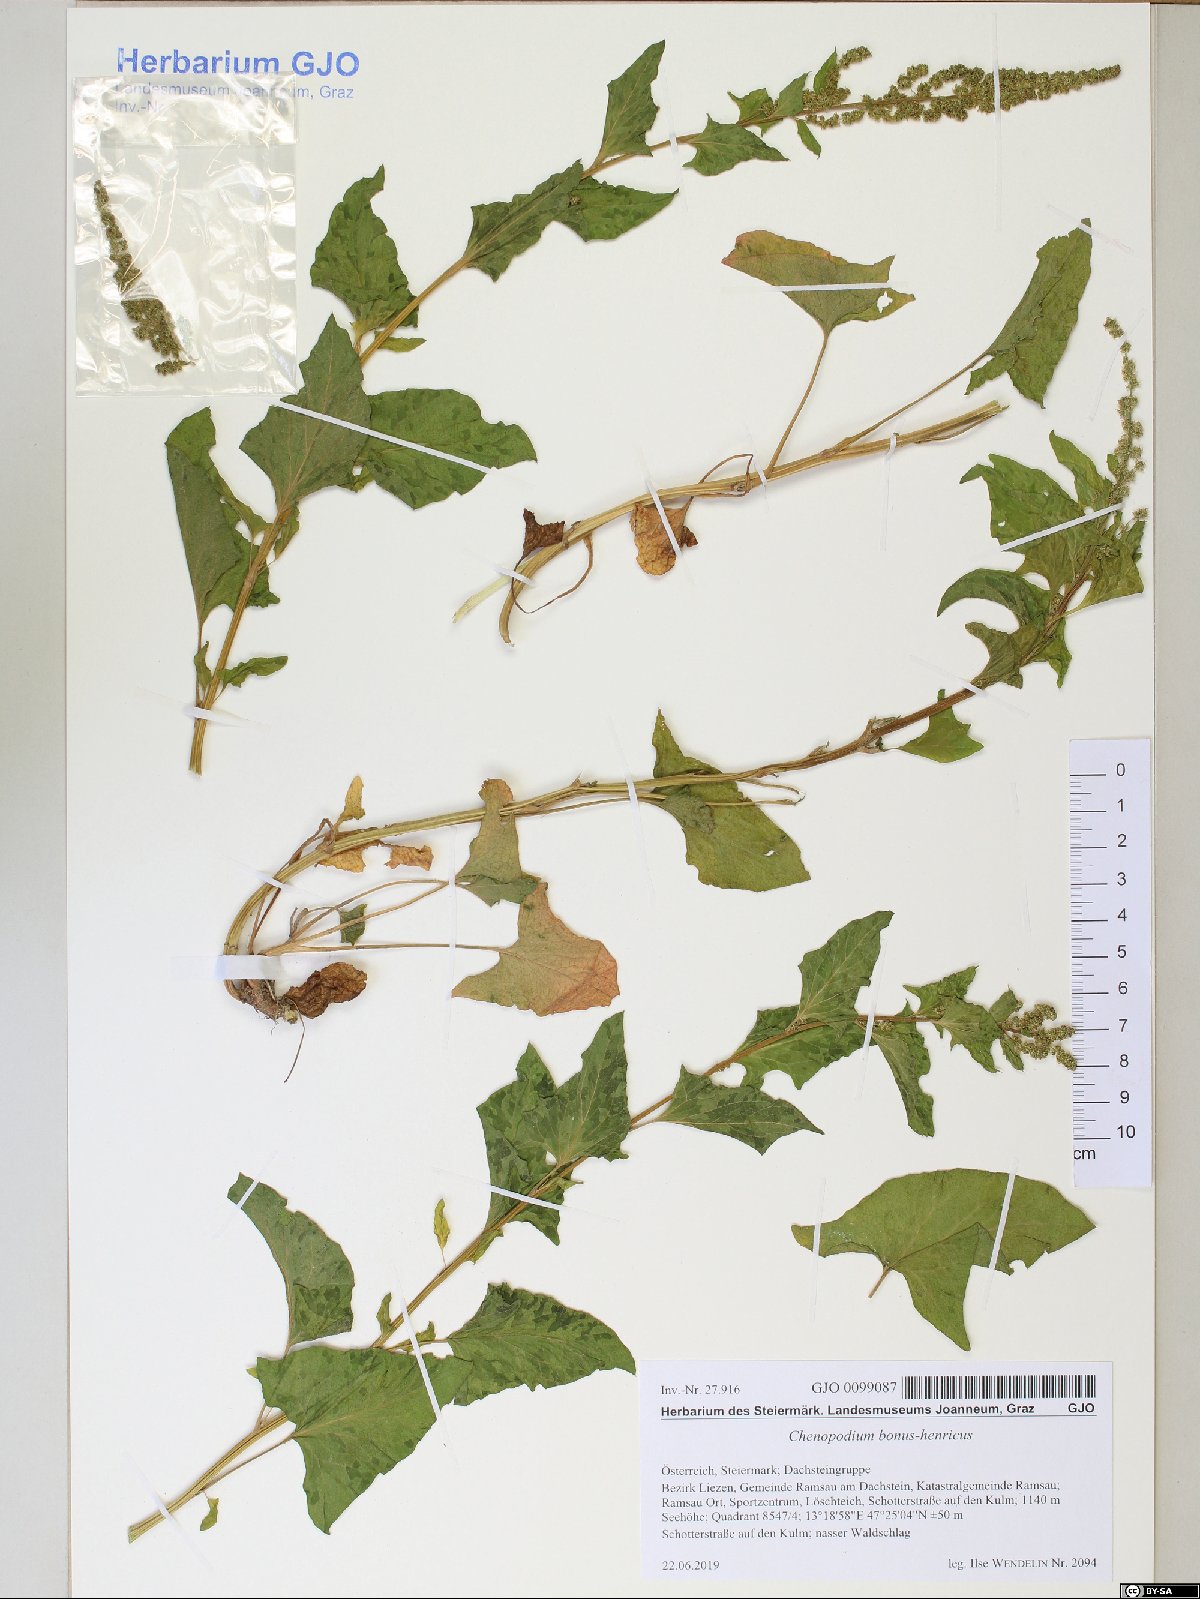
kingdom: Plantae
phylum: Tracheophyta
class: Magnoliopsida
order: Caryophyllales
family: Amaranthaceae
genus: Blitum
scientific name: Blitum bonus-henricus
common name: Good king henry
